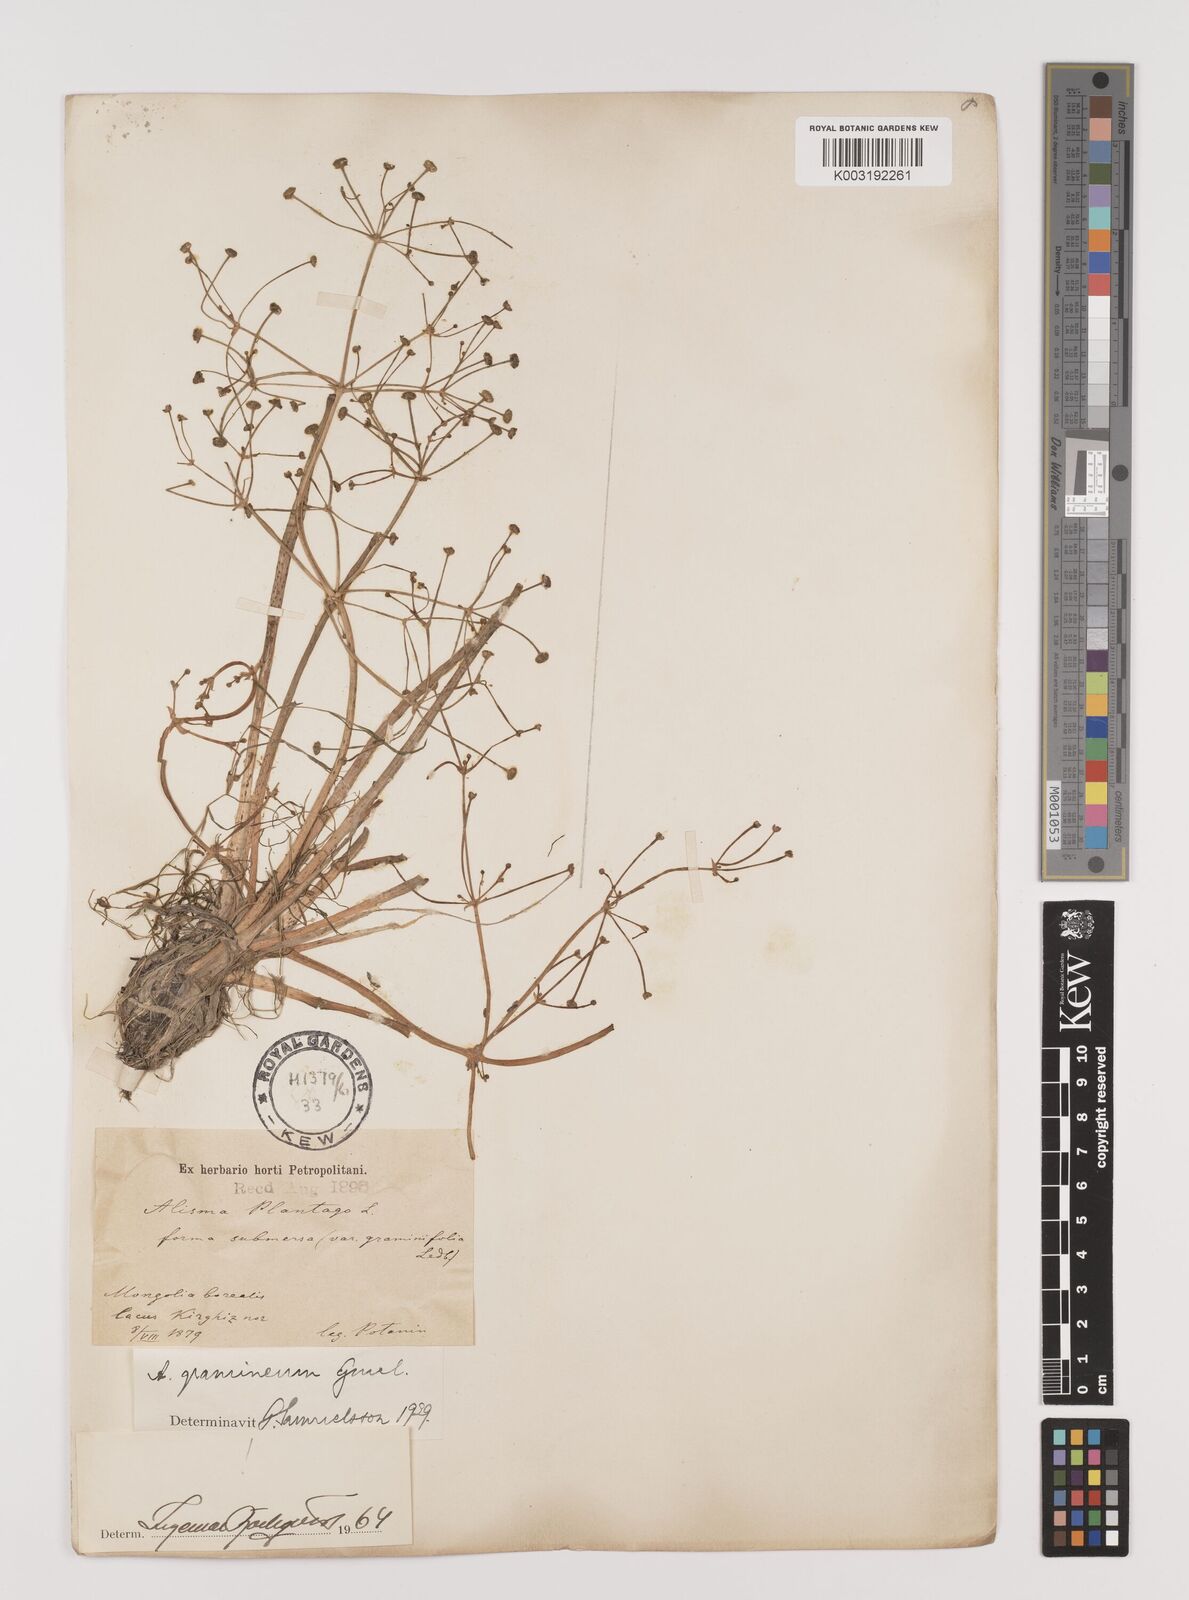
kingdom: Plantae
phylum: Tracheophyta
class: Liliopsida
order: Alismatales
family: Alismataceae
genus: Alisma
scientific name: Alisma gramineum
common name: Ribbon-leaved water-plantain
